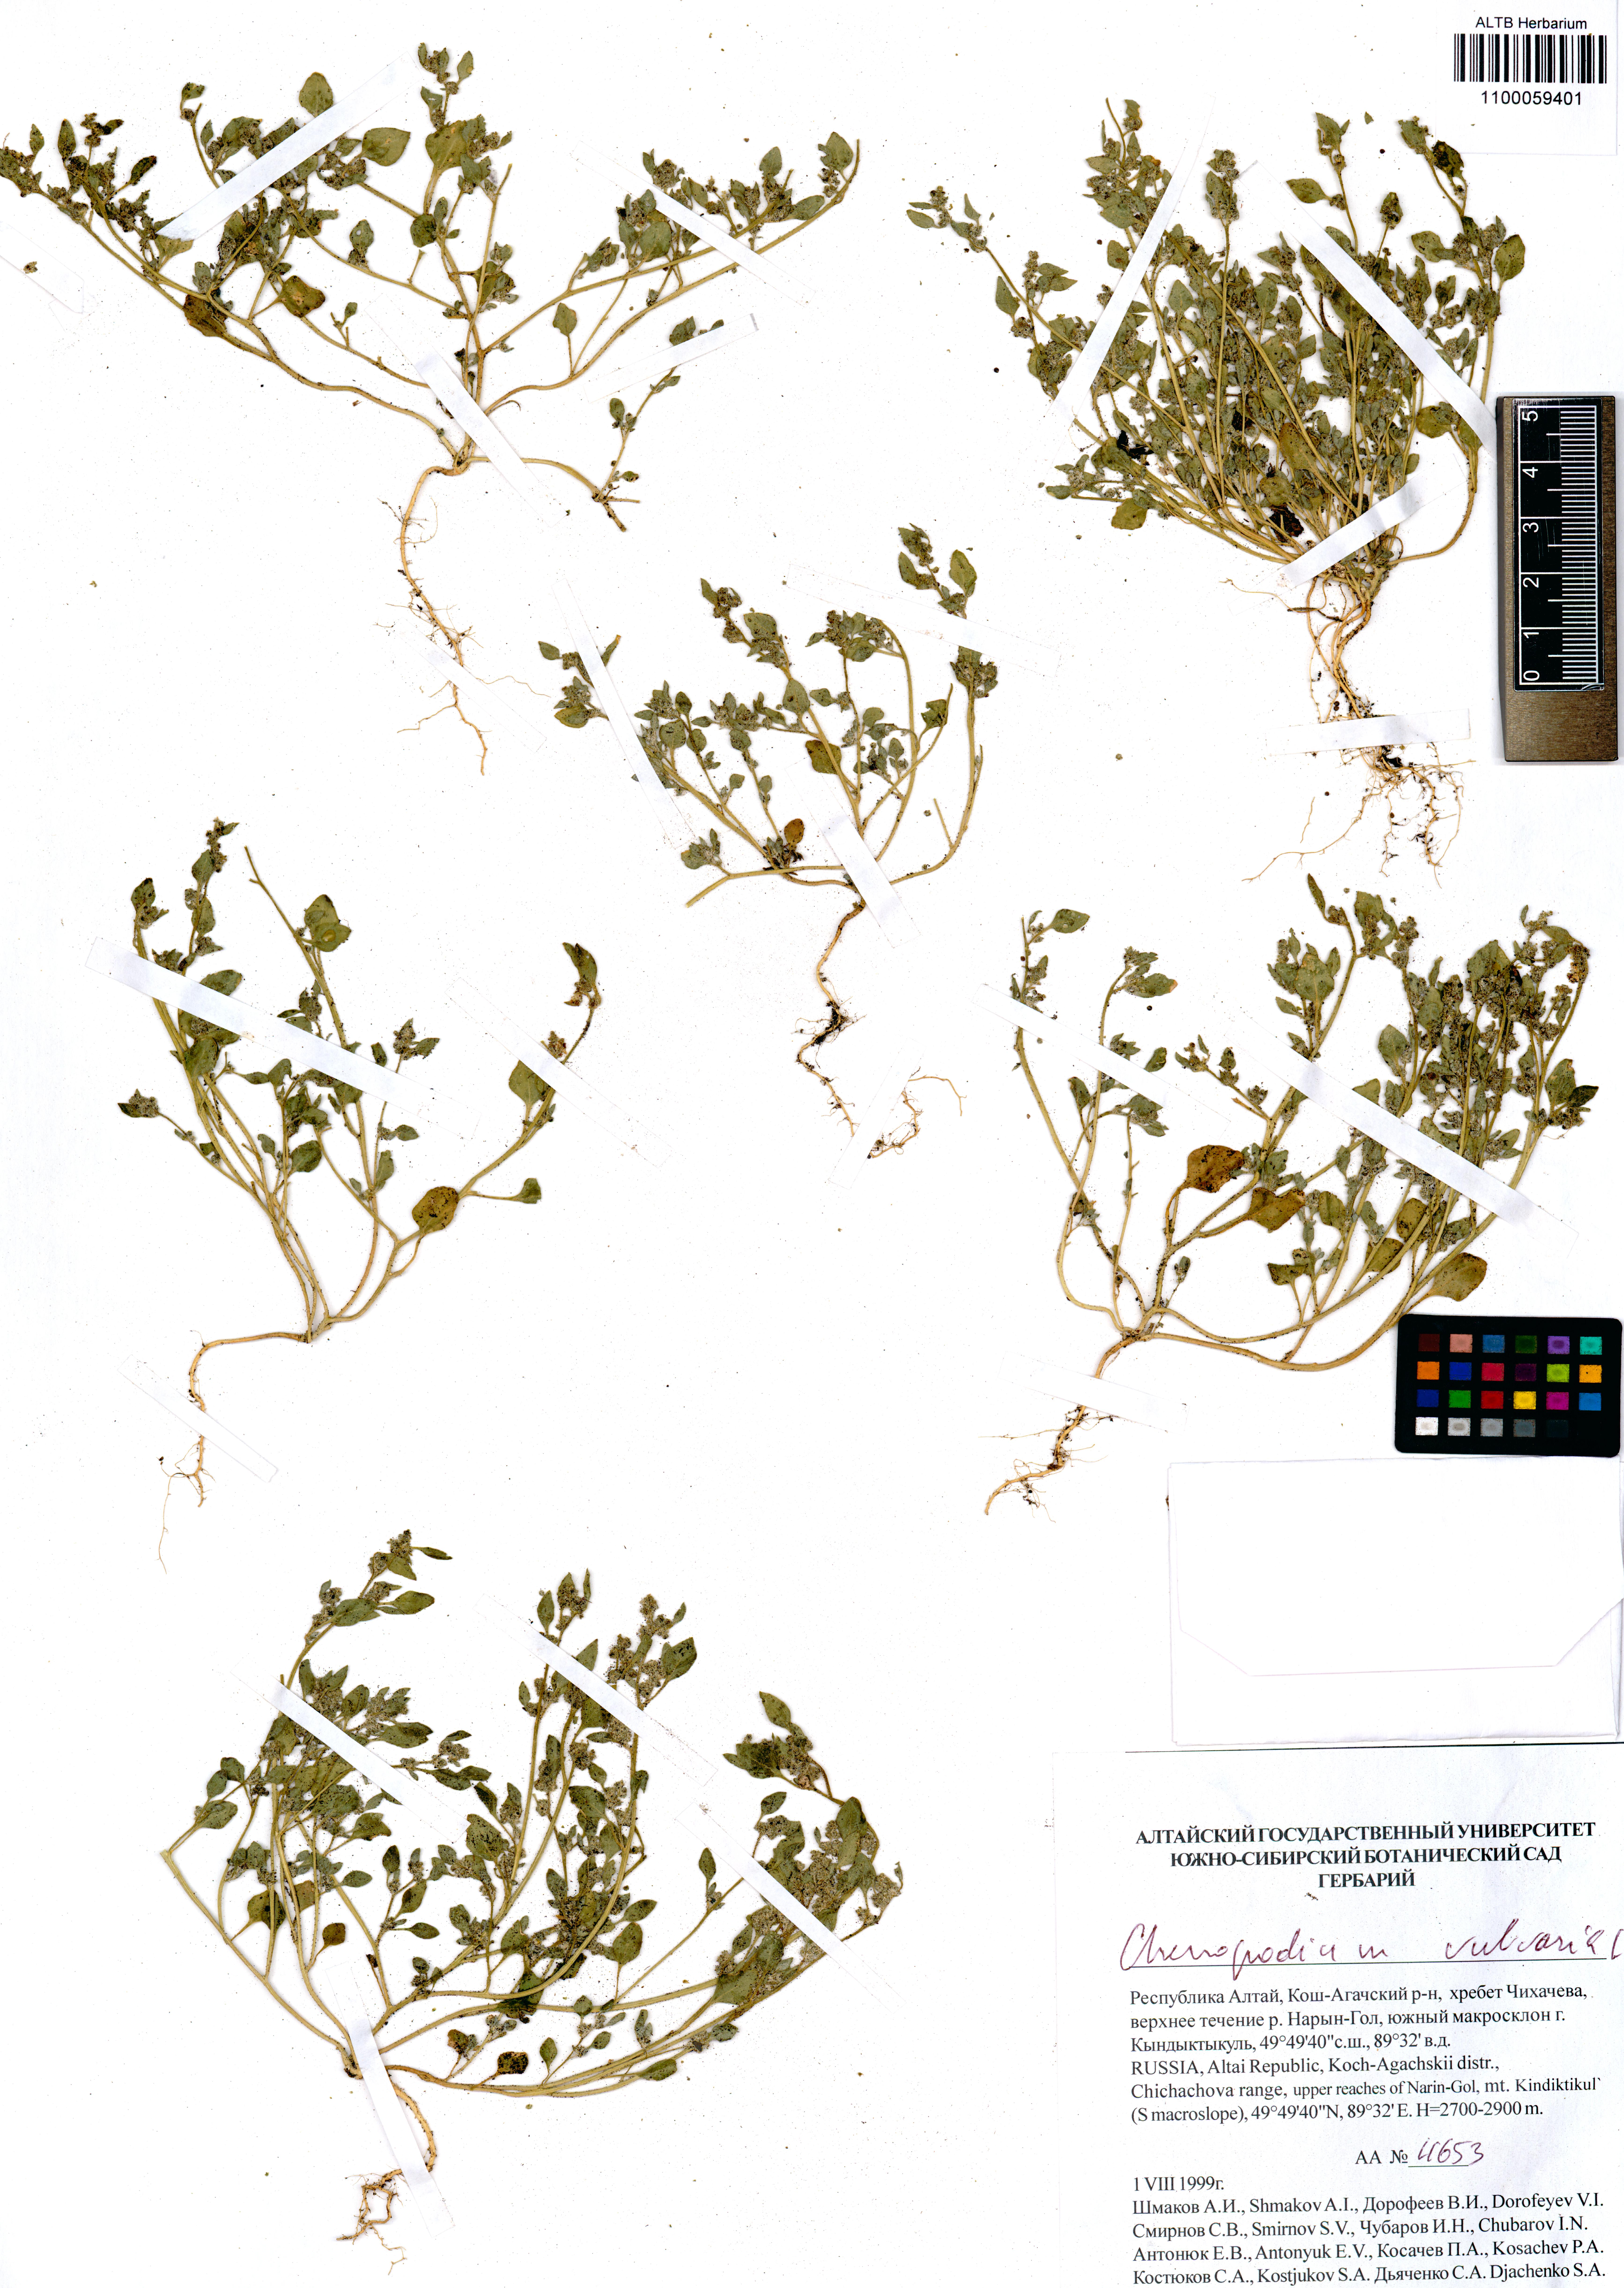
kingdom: Plantae
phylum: Tracheophyta
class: Magnoliopsida
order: Caryophyllales
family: Amaranthaceae
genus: Chenopodium
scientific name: Chenopodium vulvaria
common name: Stinking goosefoot
